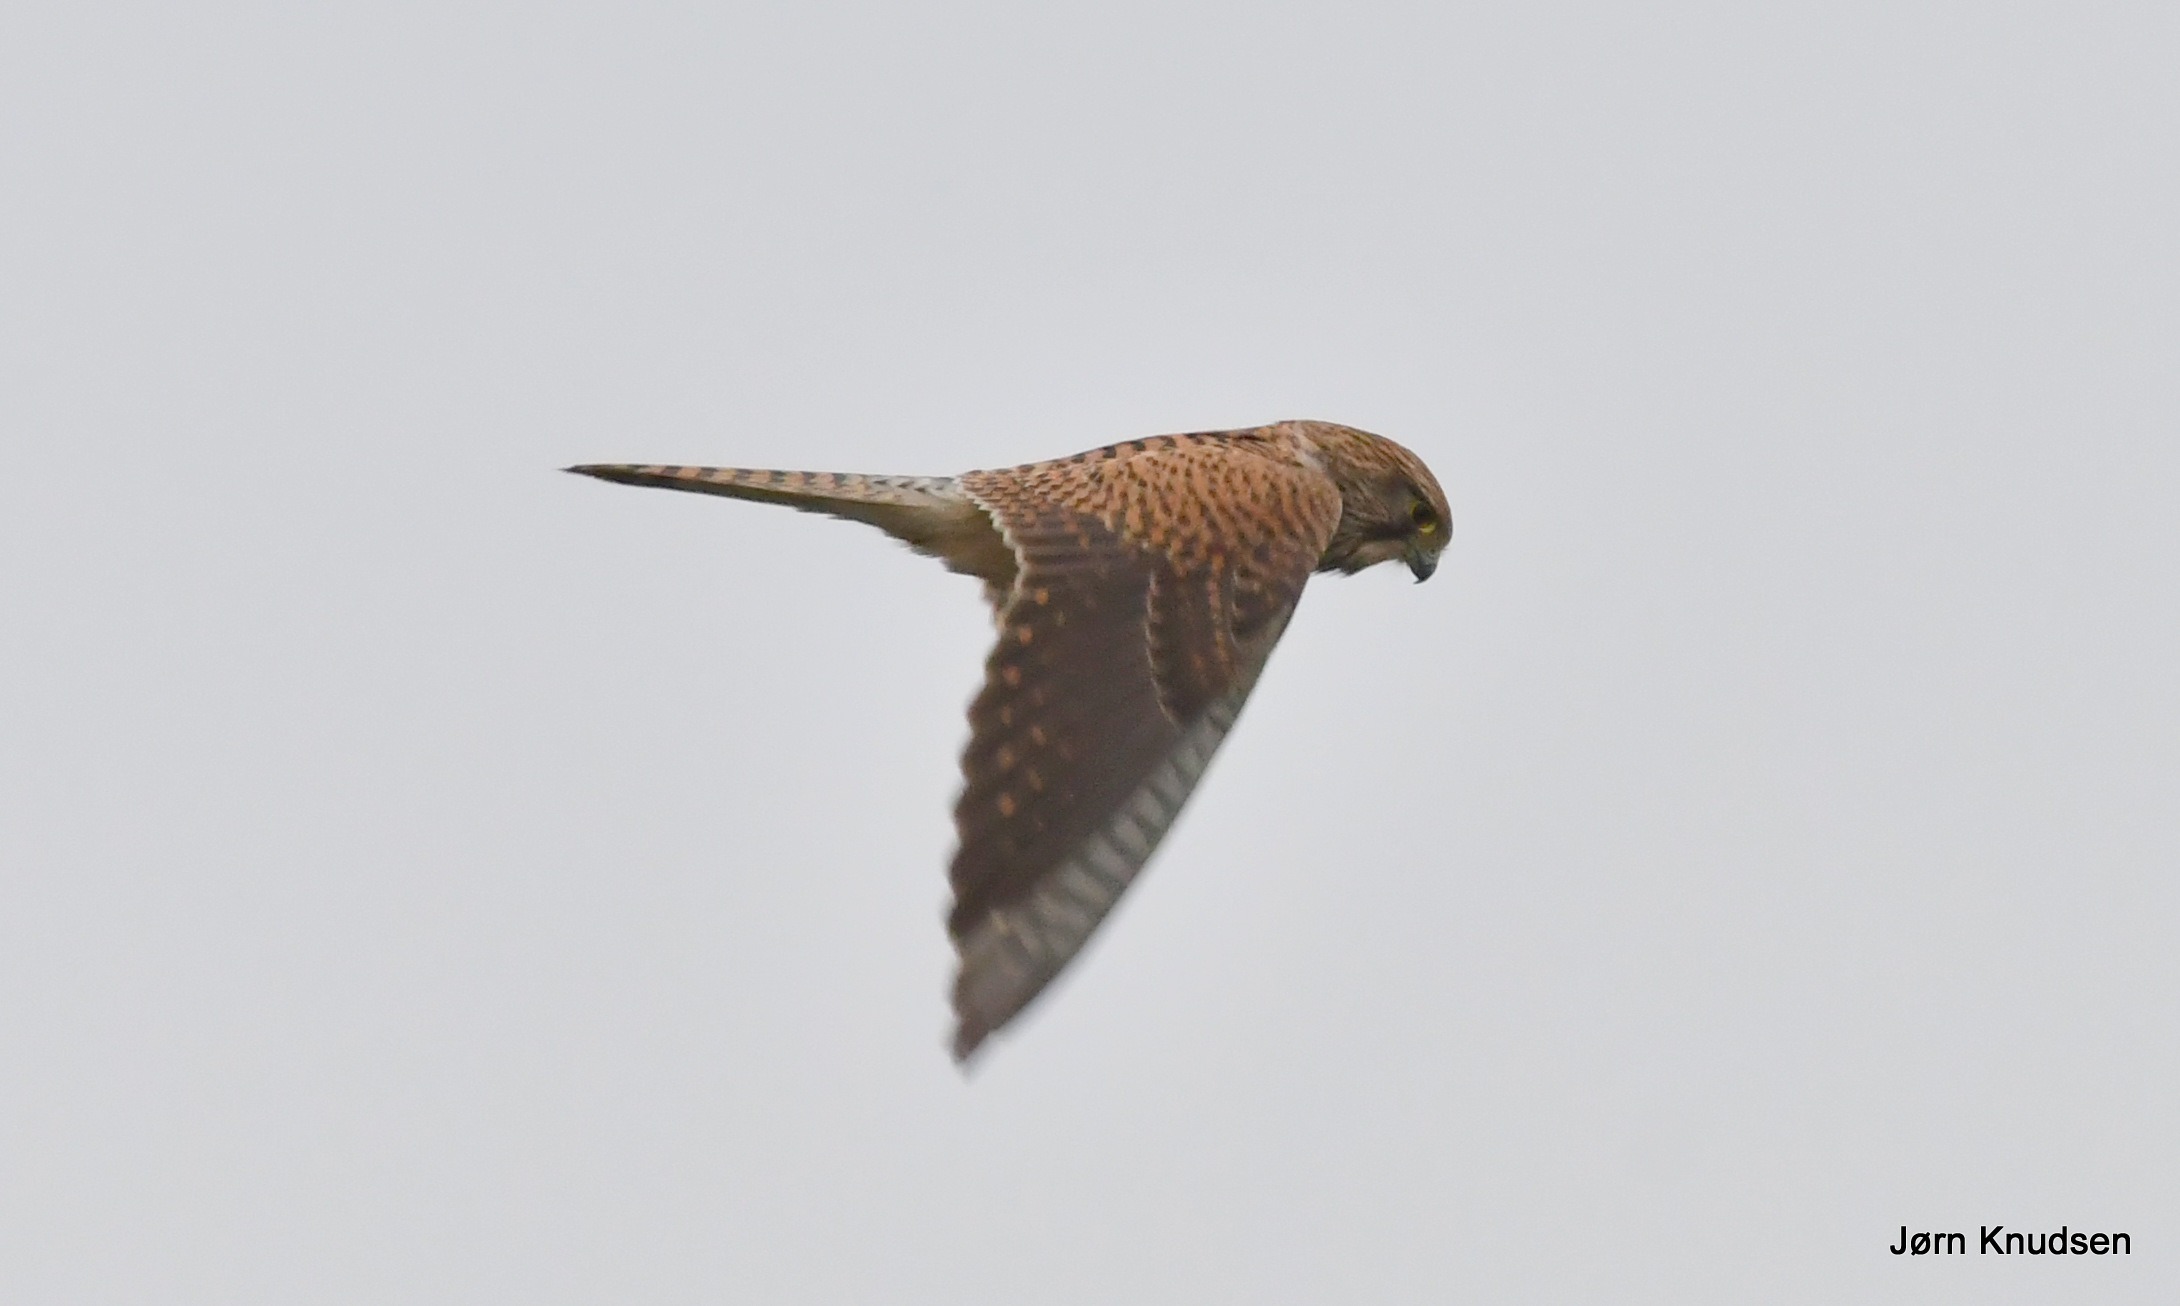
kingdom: Animalia
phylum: Chordata
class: Aves
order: Falconiformes
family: Falconidae
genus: Falco
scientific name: Falco tinnunculus
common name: Tårnfalk
